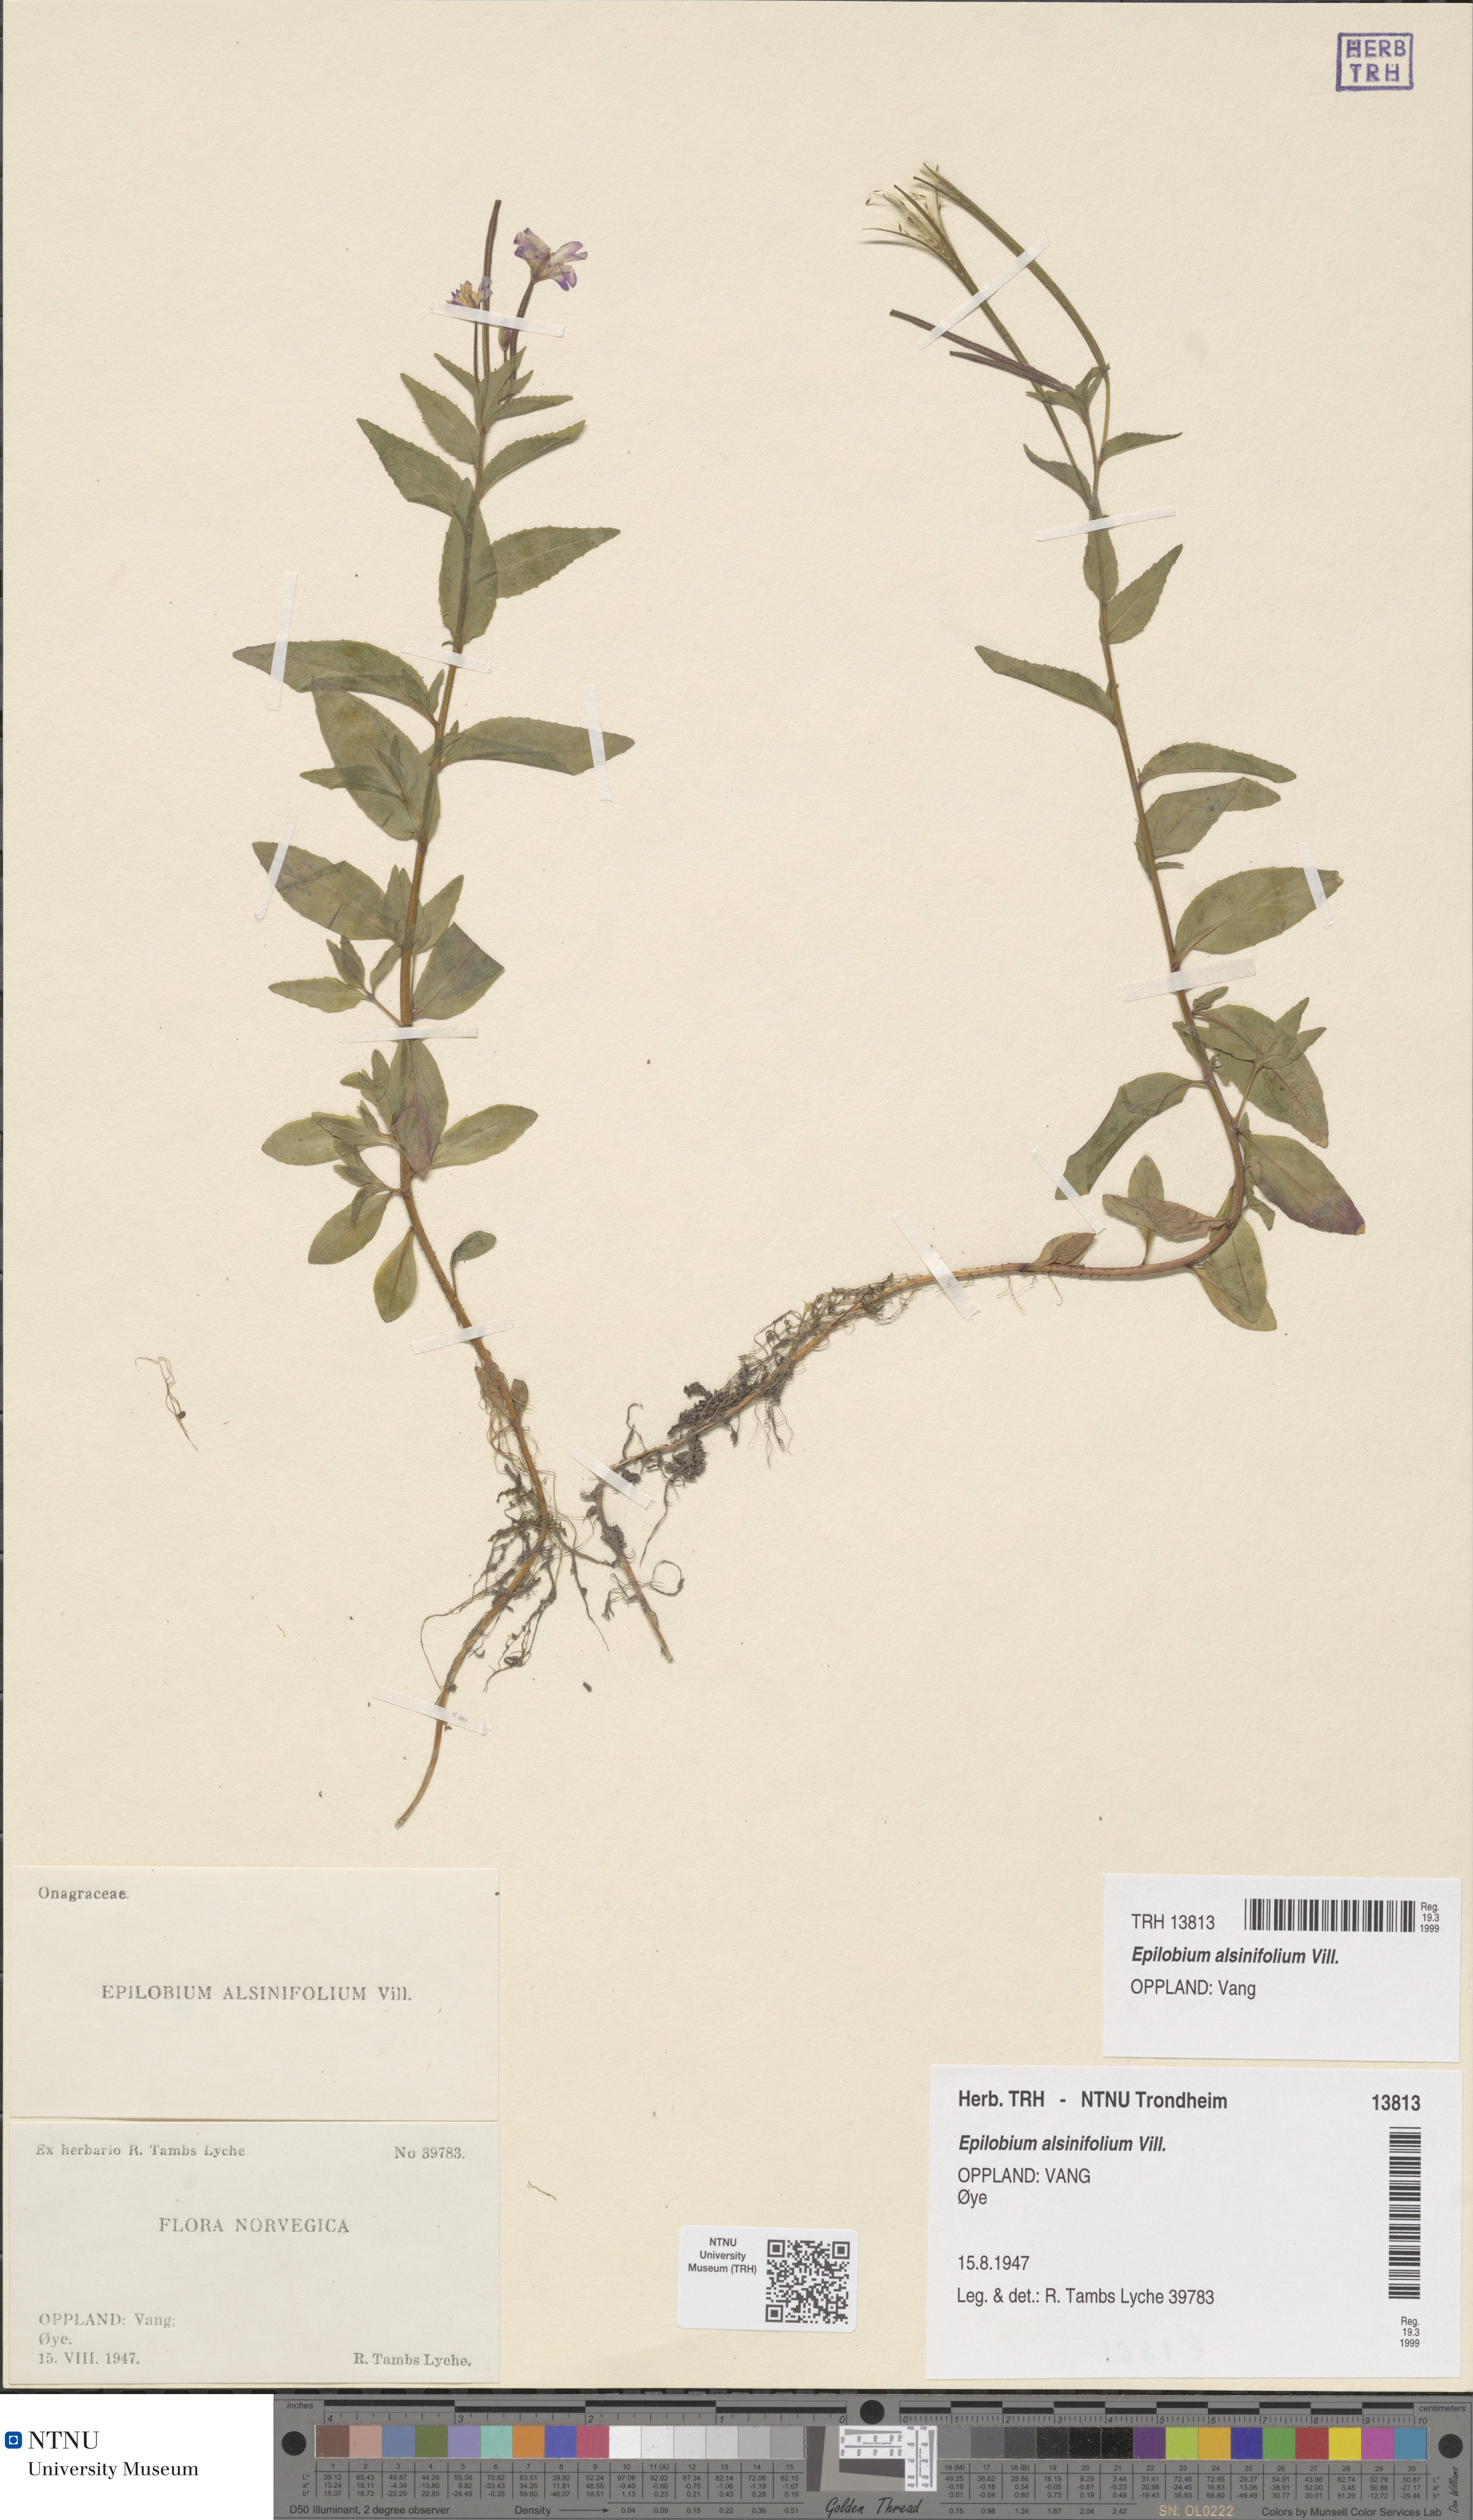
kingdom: Plantae
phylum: Tracheophyta
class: Magnoliopsida
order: Myrtales
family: Onagraceae
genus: Epilobium
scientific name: Epilobium alsinifolium
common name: Chickweed willowherb
